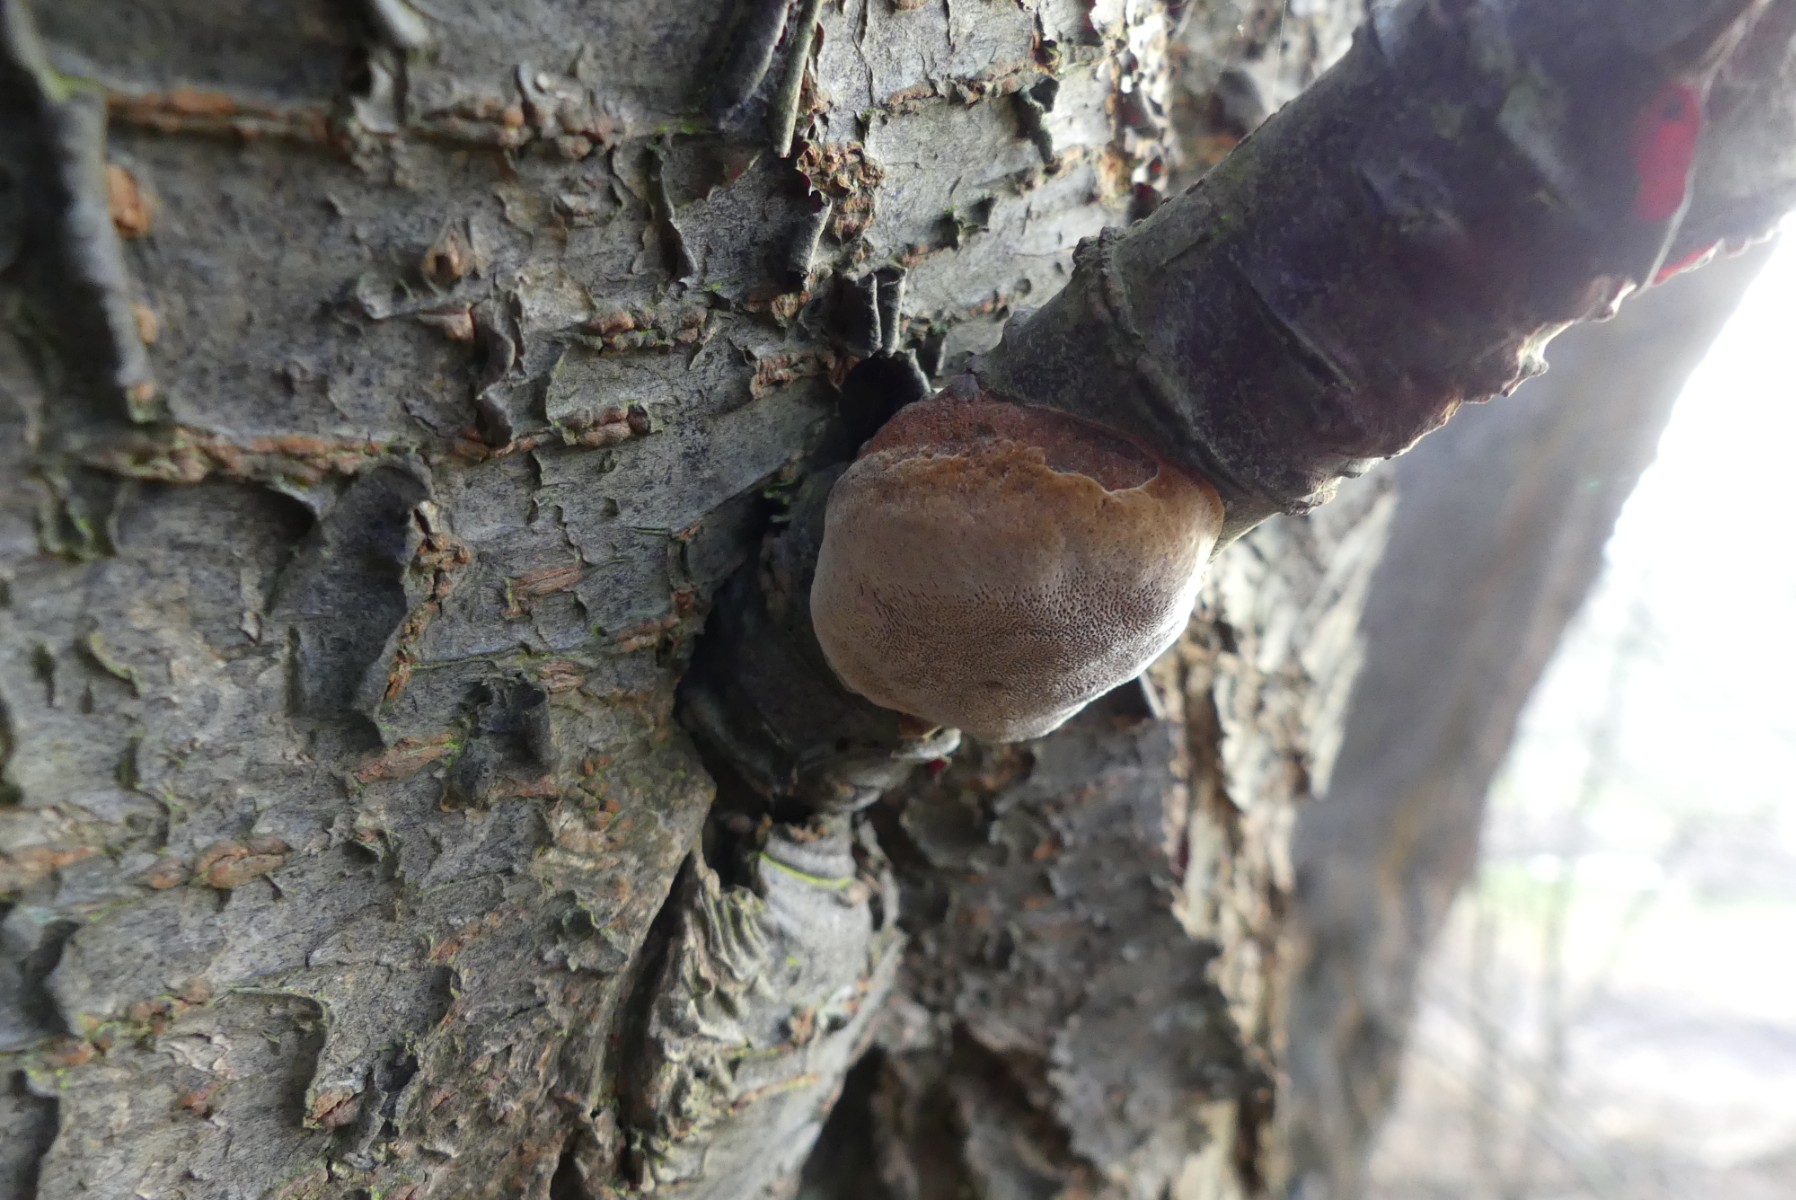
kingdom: Fungi
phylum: Basidiomycota
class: Agaricomycetes
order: Hymenochaetales
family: Hymenochaetaceae
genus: Phellinus
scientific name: Phellinus pomaceus
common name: blomme-ildporesvamp
